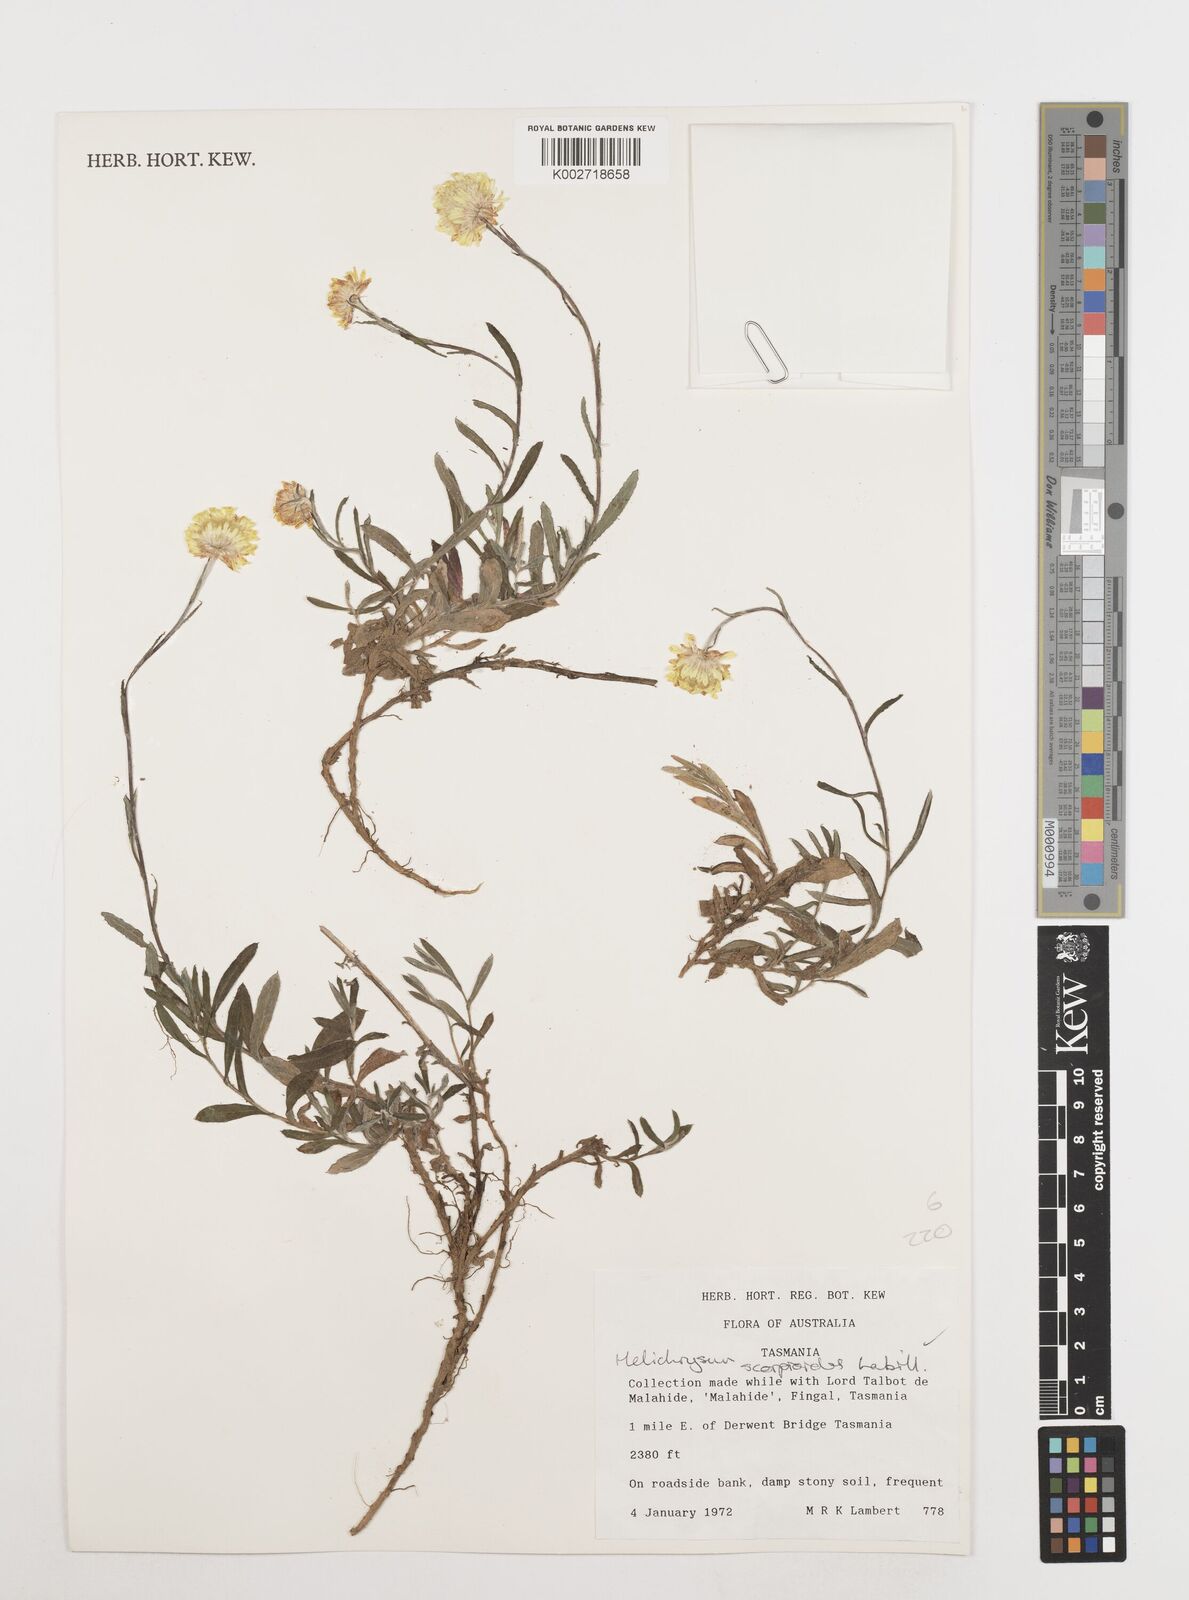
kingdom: Plantae
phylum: Tracheophyta
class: Magnoliopsida
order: Asterales
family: Asteraceae
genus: Coronidium
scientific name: Coronidium scorpioides
